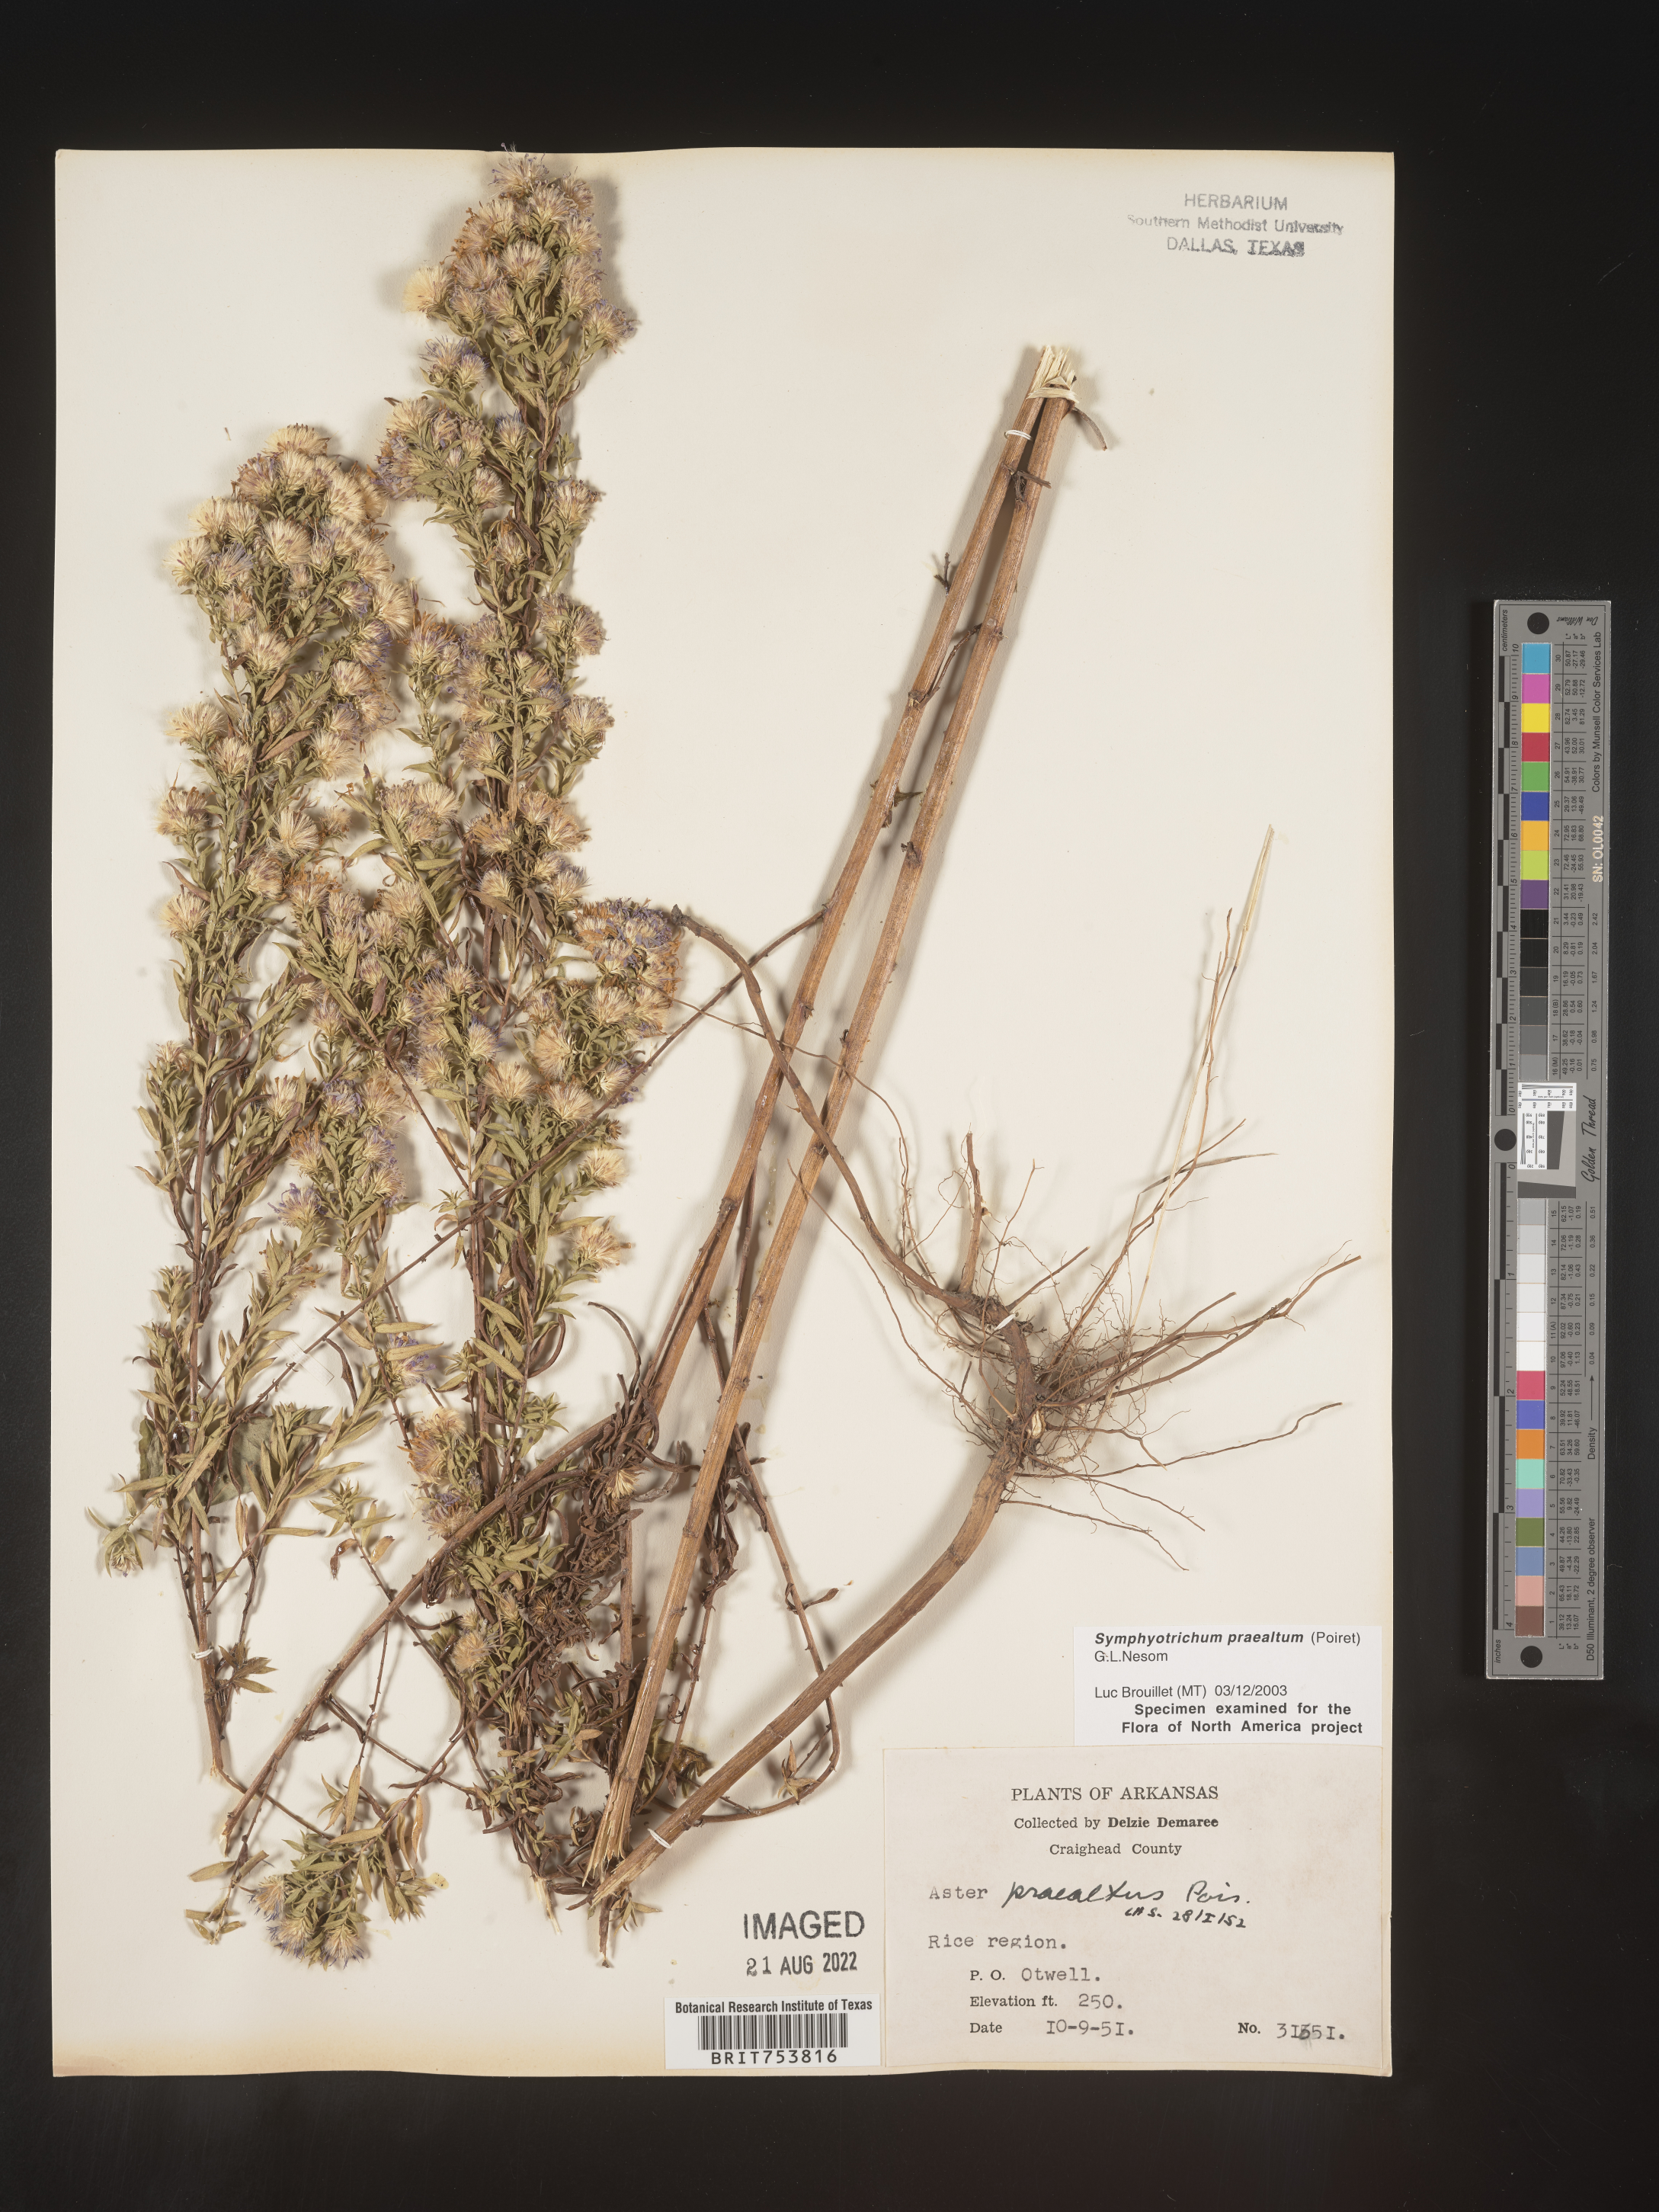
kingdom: Plantae
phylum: Tracheophyta
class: Magnoliopsida
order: Asterales
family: Asteraceae
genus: Symphyotrichum
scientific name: Symphyotrichum praealtum
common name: Willow aster
